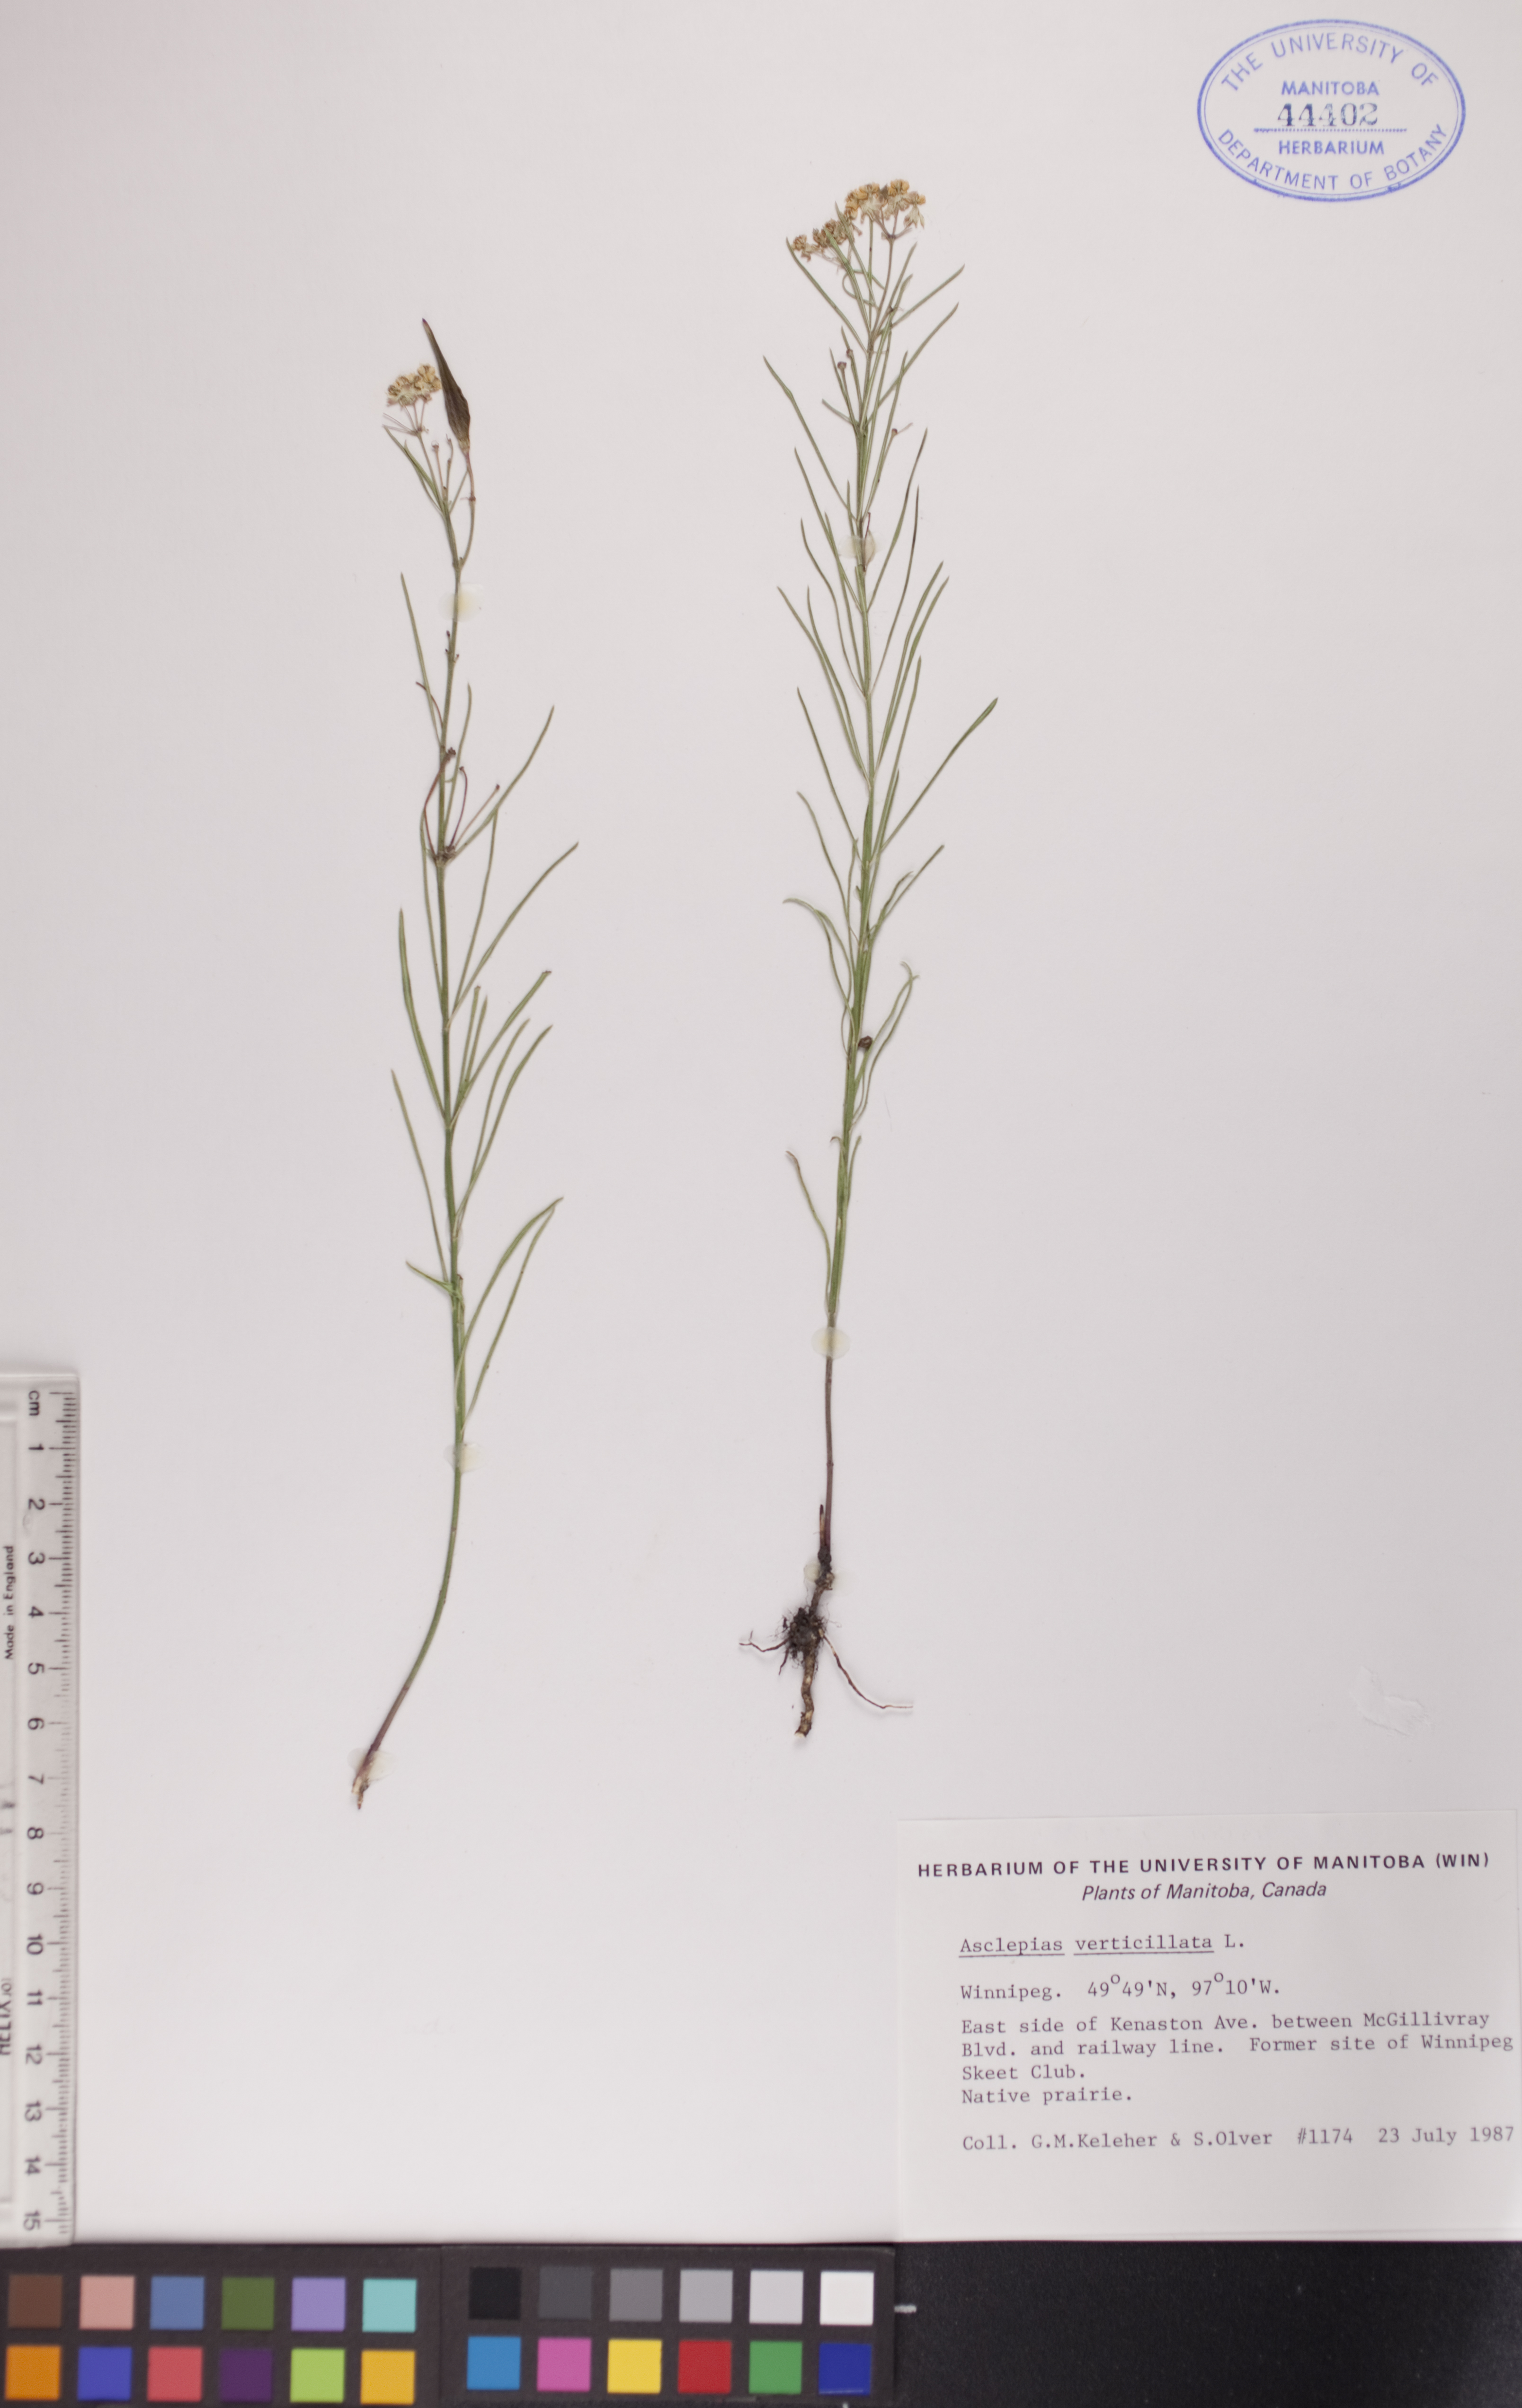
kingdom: Plantae
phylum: Tracheophyta
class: Magnoliopsida
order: Gentianales
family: Apocynaceae
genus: Asclepias
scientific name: Asclepias verticillata
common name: Eastern whorled milkweed
